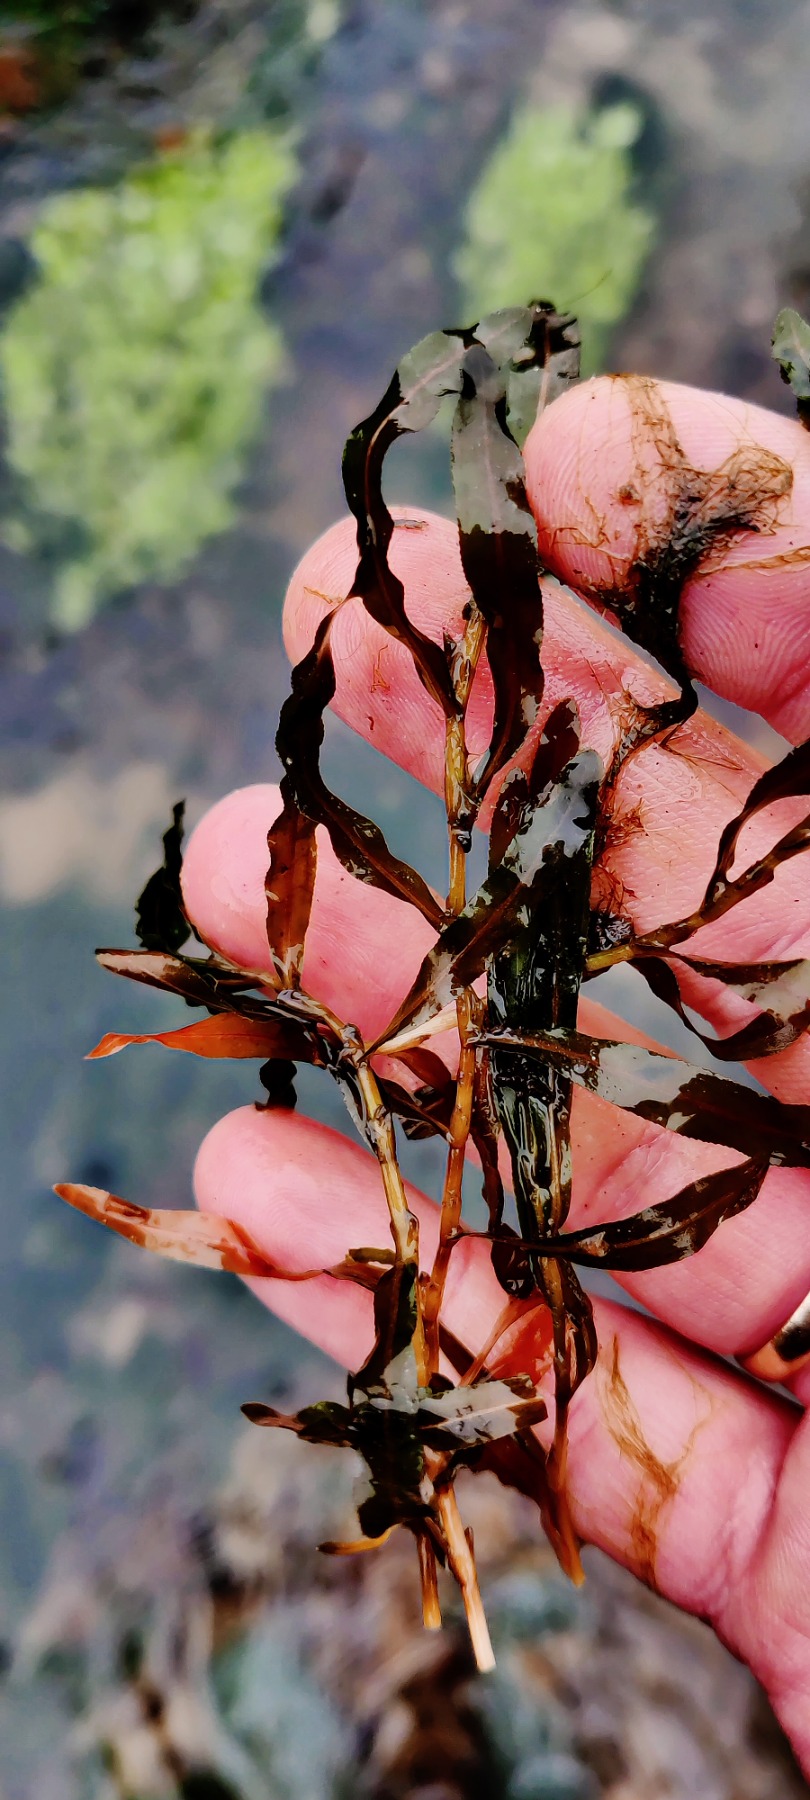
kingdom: Plantae
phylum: Tracheophyta
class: Liliopsida
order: Alismatales
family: Potamogetonaceae
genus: Potamogeton
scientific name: Potamogeton crispus
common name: Kruset vandaks
